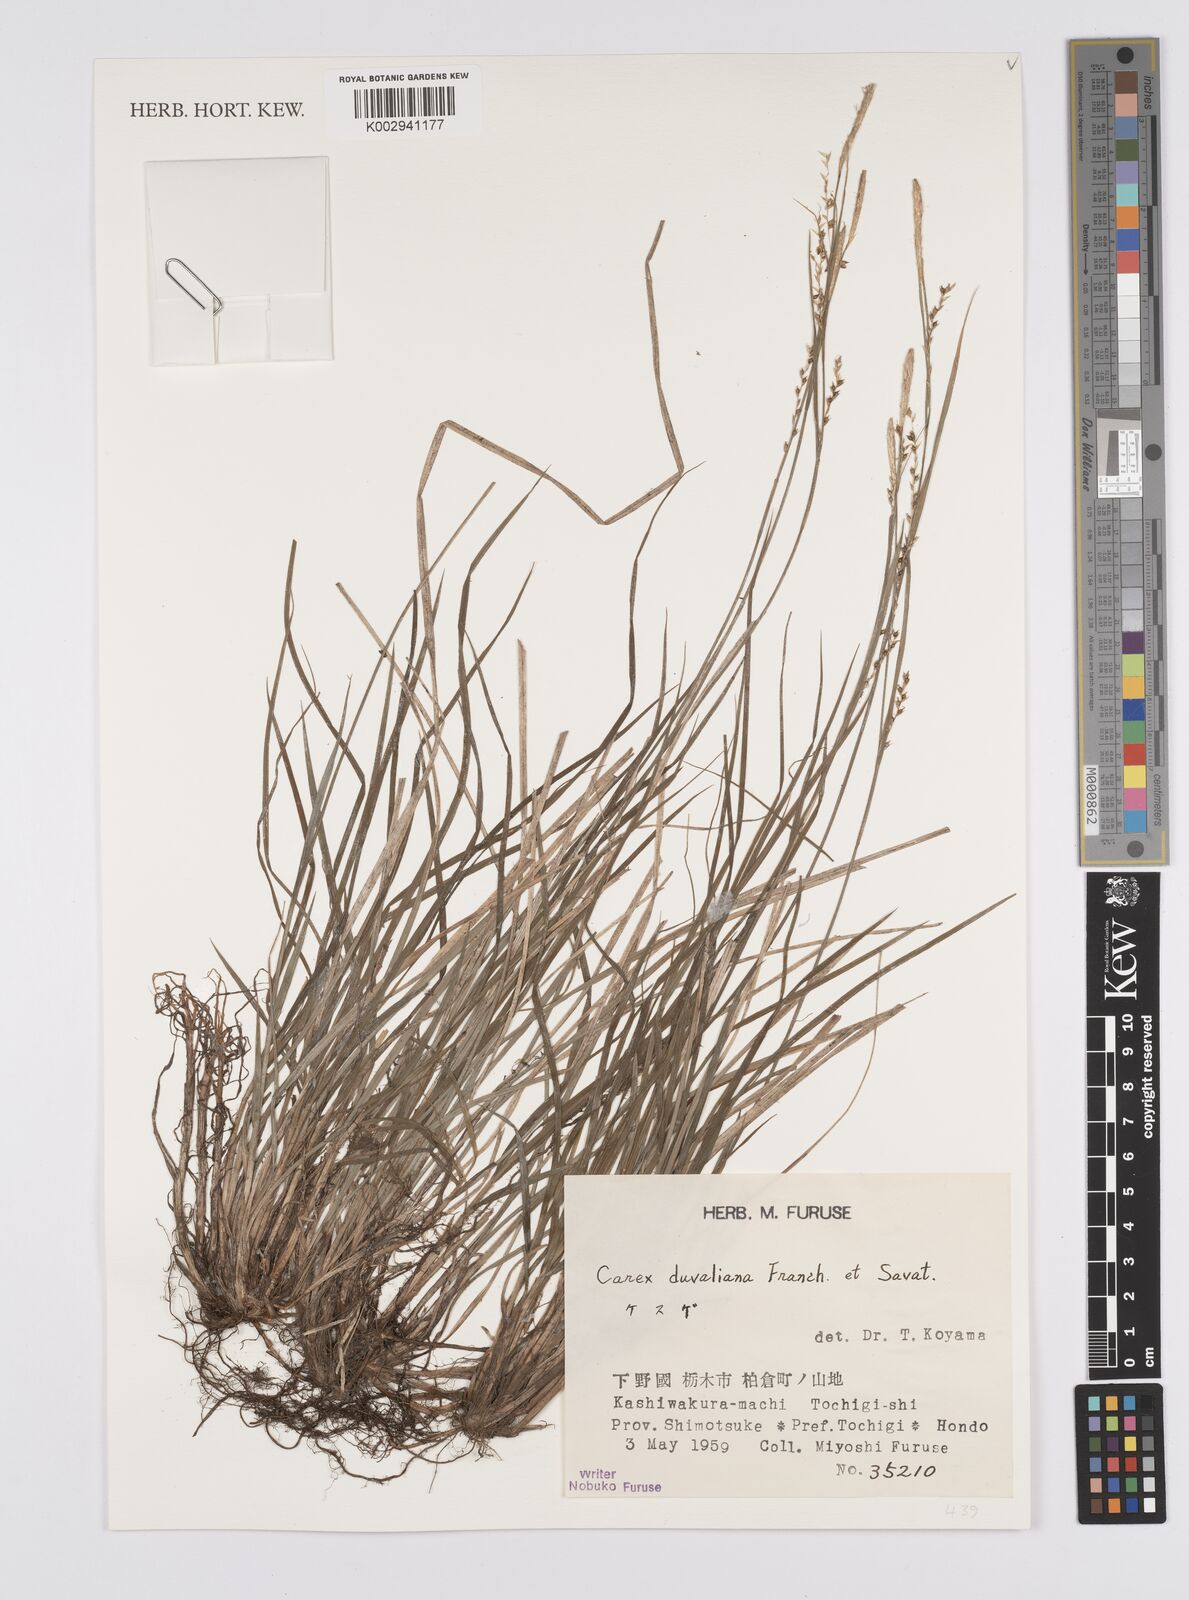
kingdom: Plantae
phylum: Tracheophyta
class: Liliopsida
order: Poales
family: Cyperaceae
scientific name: Cyperaceae
